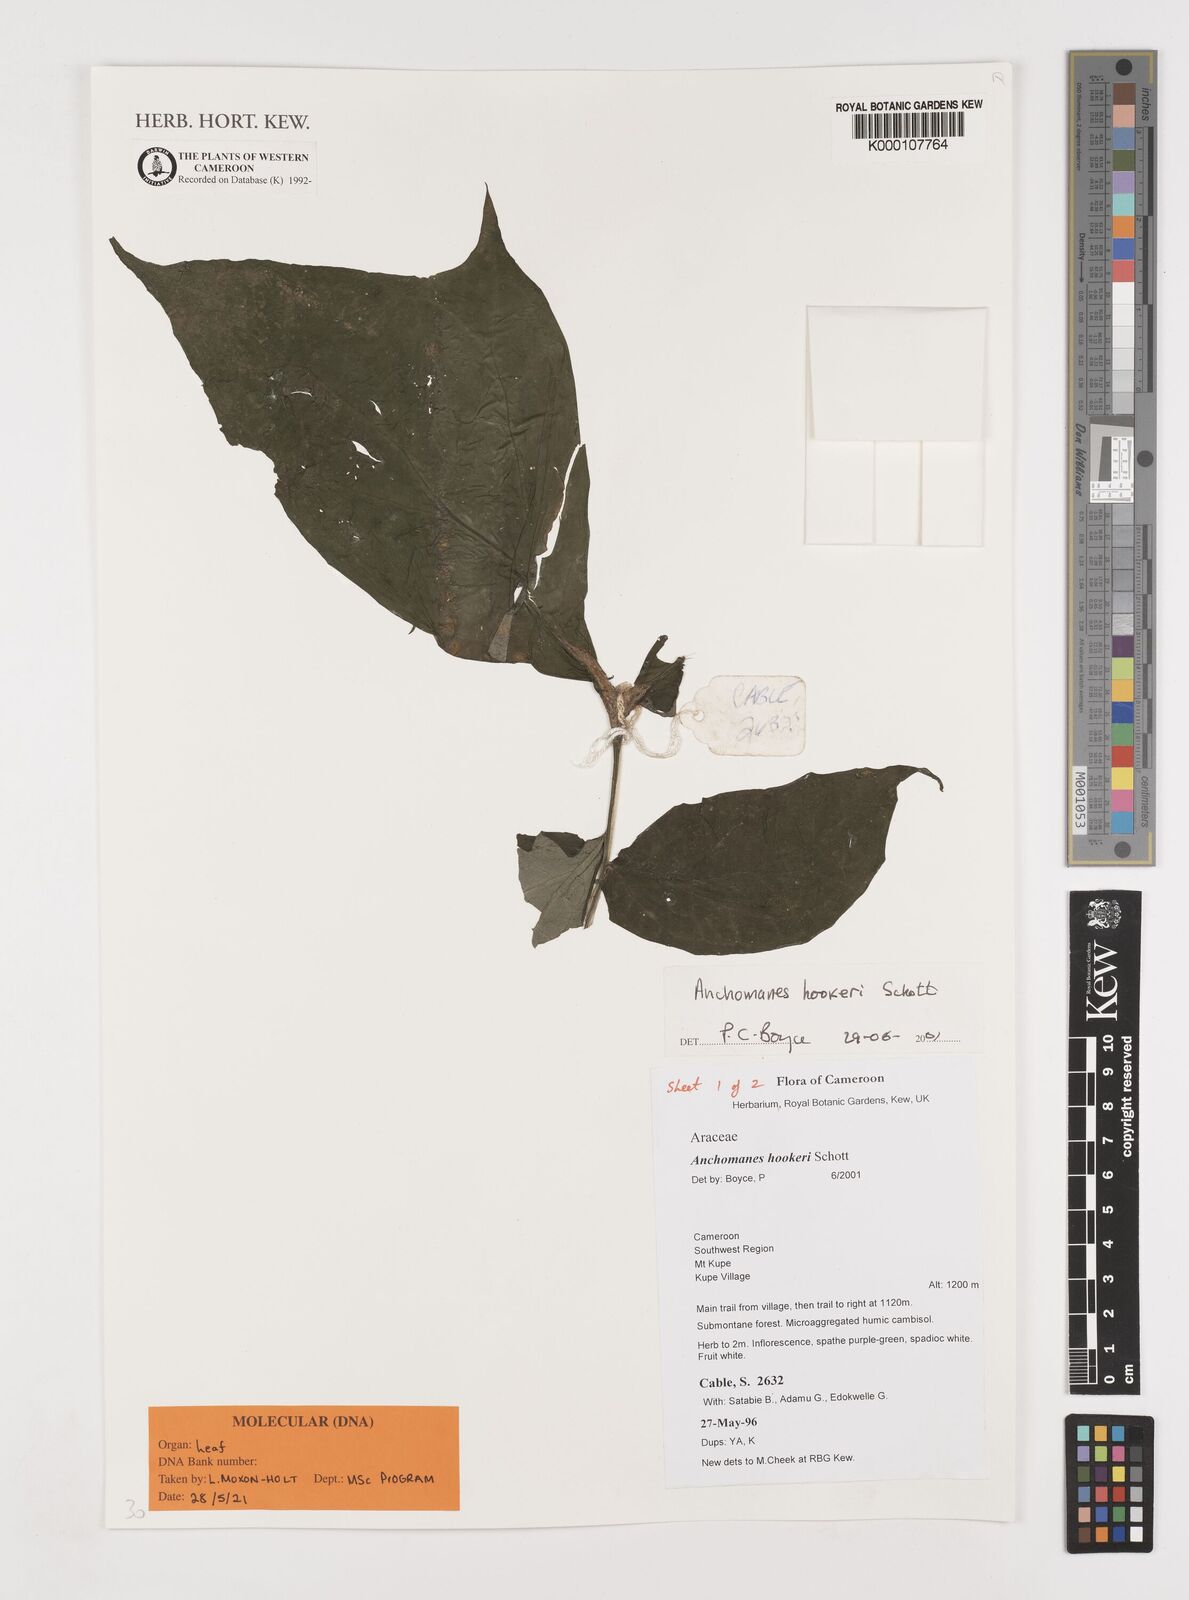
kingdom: Plantae
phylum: Tracheophyta
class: Liliopsida
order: Alismatales
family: Araceae
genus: Anchomanes
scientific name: Anchomanes difformis
